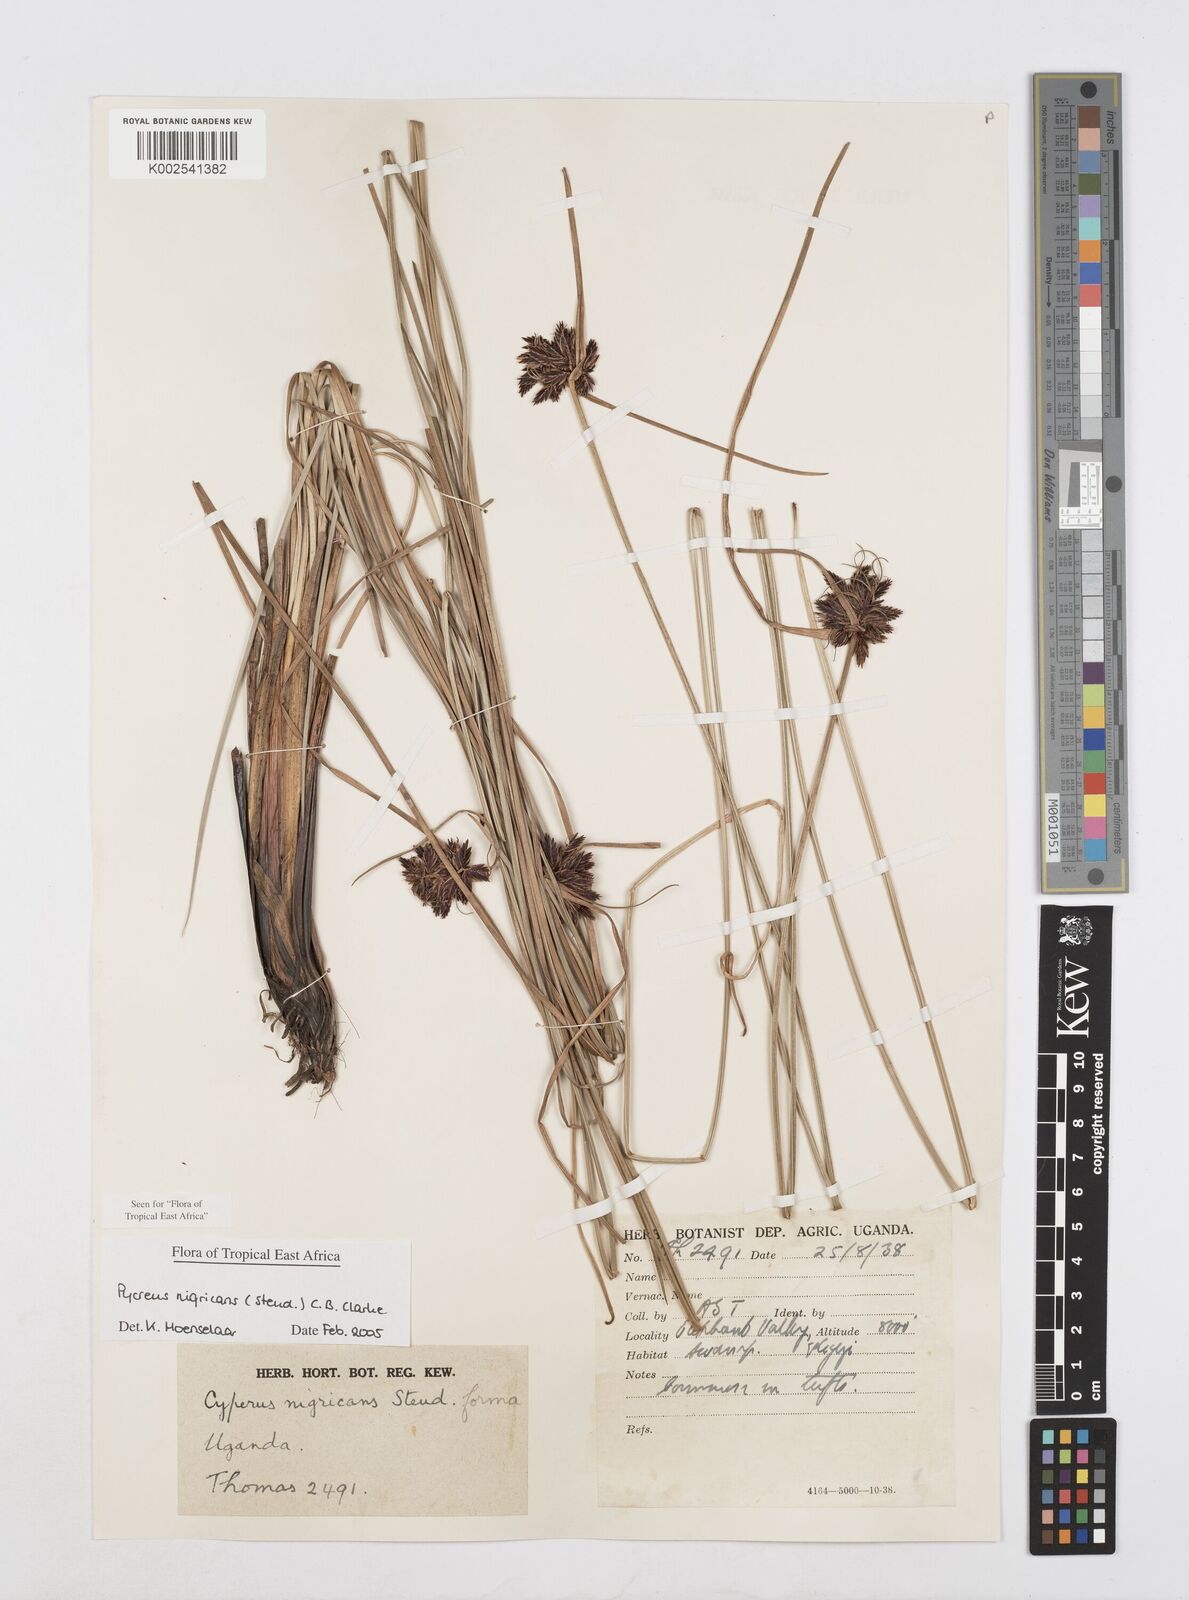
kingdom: Plantae
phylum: Tracheophyta
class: Liliopsida
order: Poales
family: Cyperaceae
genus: Cyperus
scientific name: Cyperus nigricans
